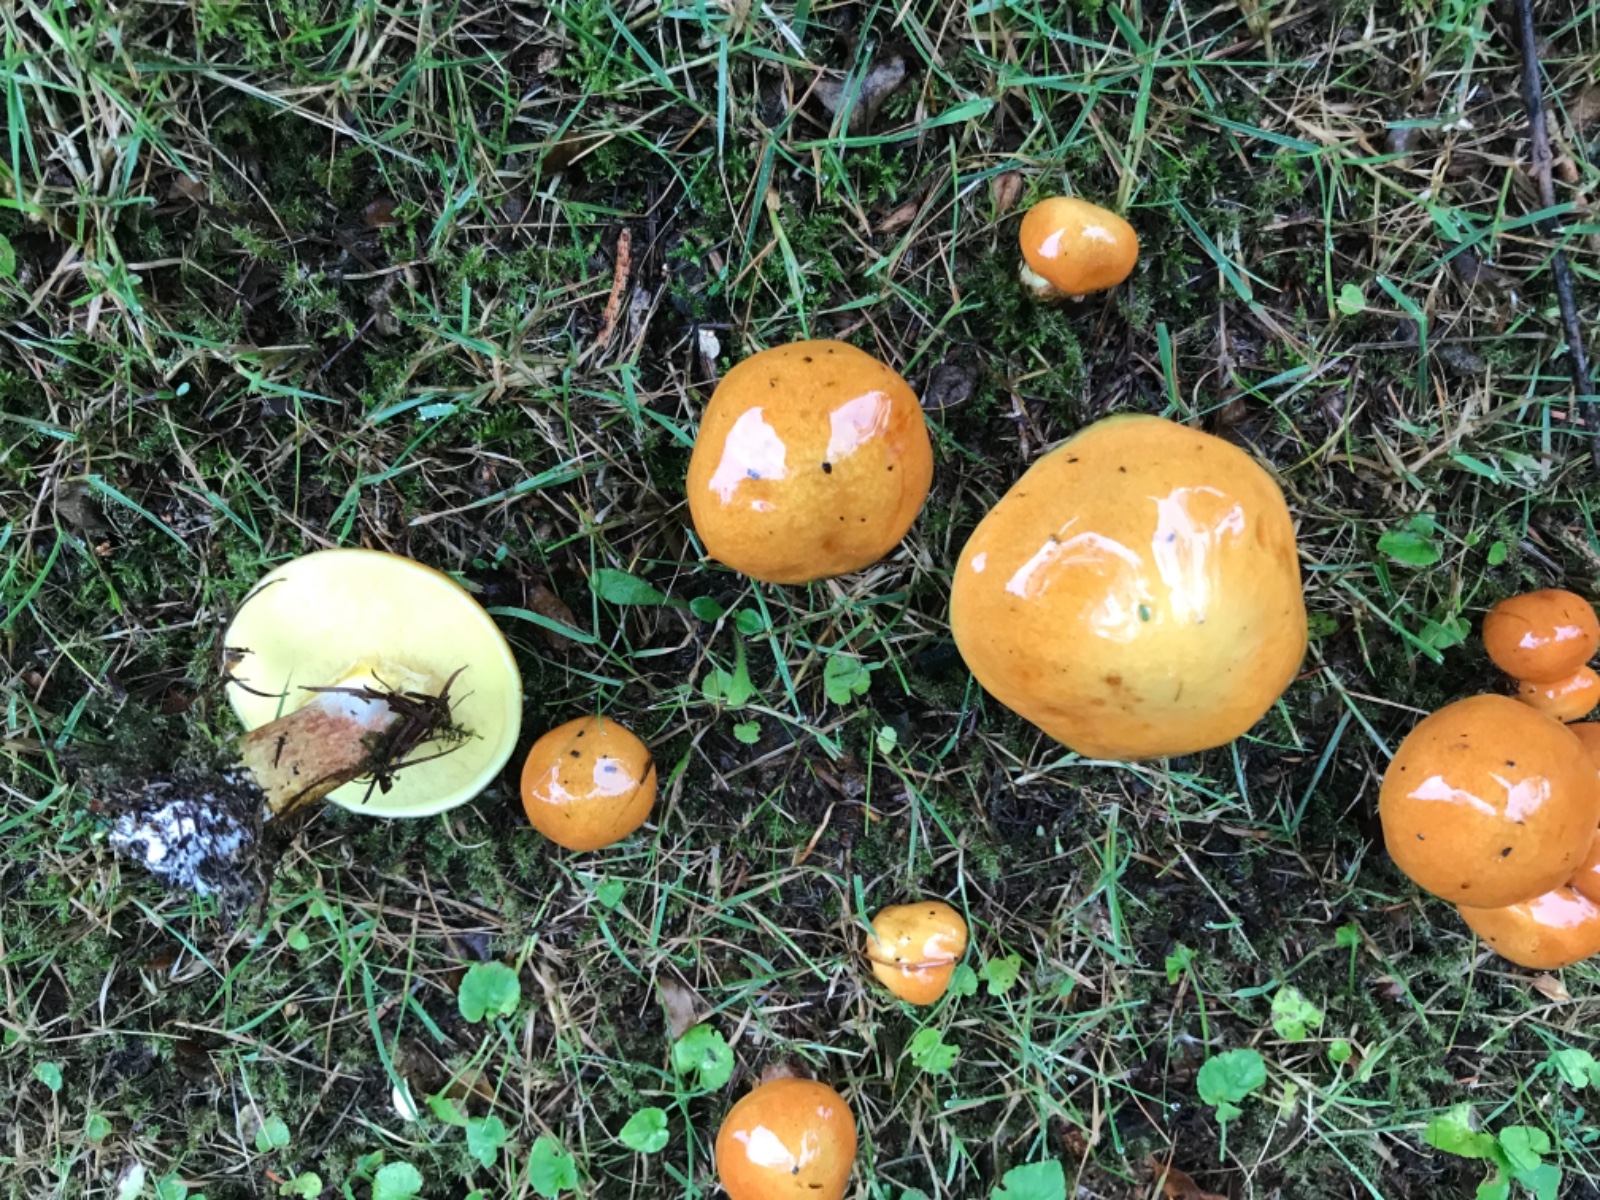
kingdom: Fungi
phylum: Basidiomycota
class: Agaricomycetes
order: Boletales
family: Suillaceae
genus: Suillus
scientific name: Suillus grevillei
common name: lærke-slimrørhat
